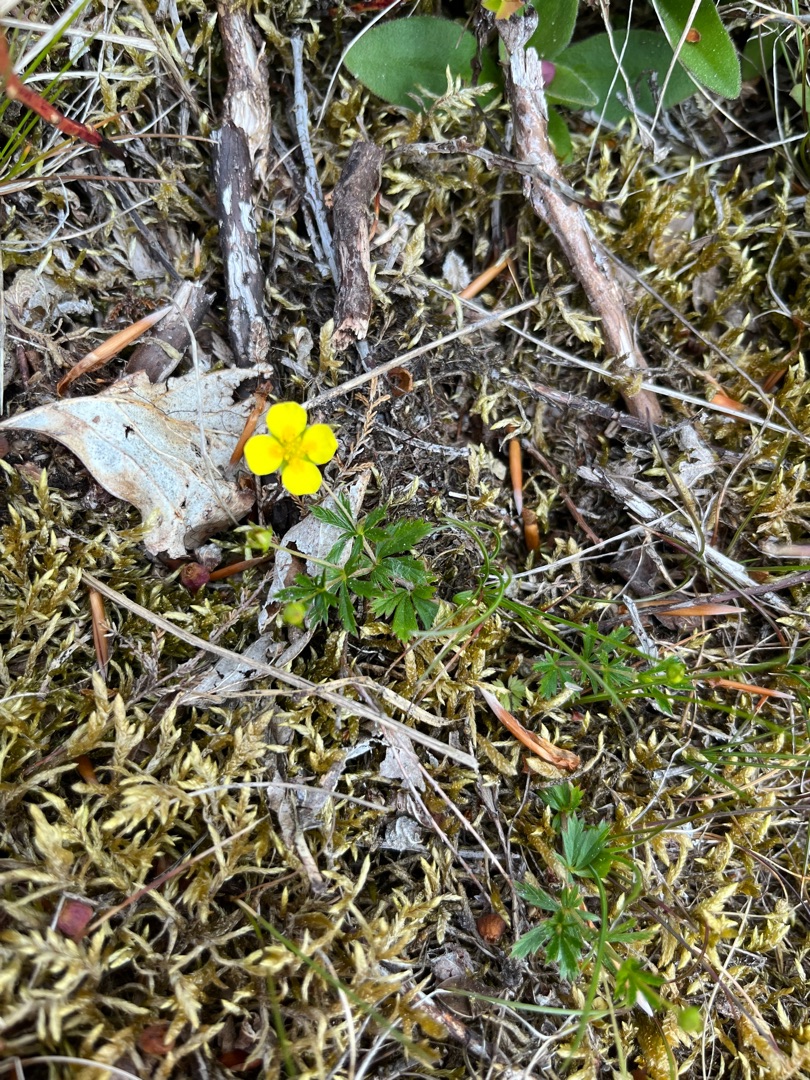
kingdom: Plantae
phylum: Tracheophyta
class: Magnoliopsida
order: Rosales
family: Rosaceae
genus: Potentilla
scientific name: Potentilla erecta
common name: Tormentil
